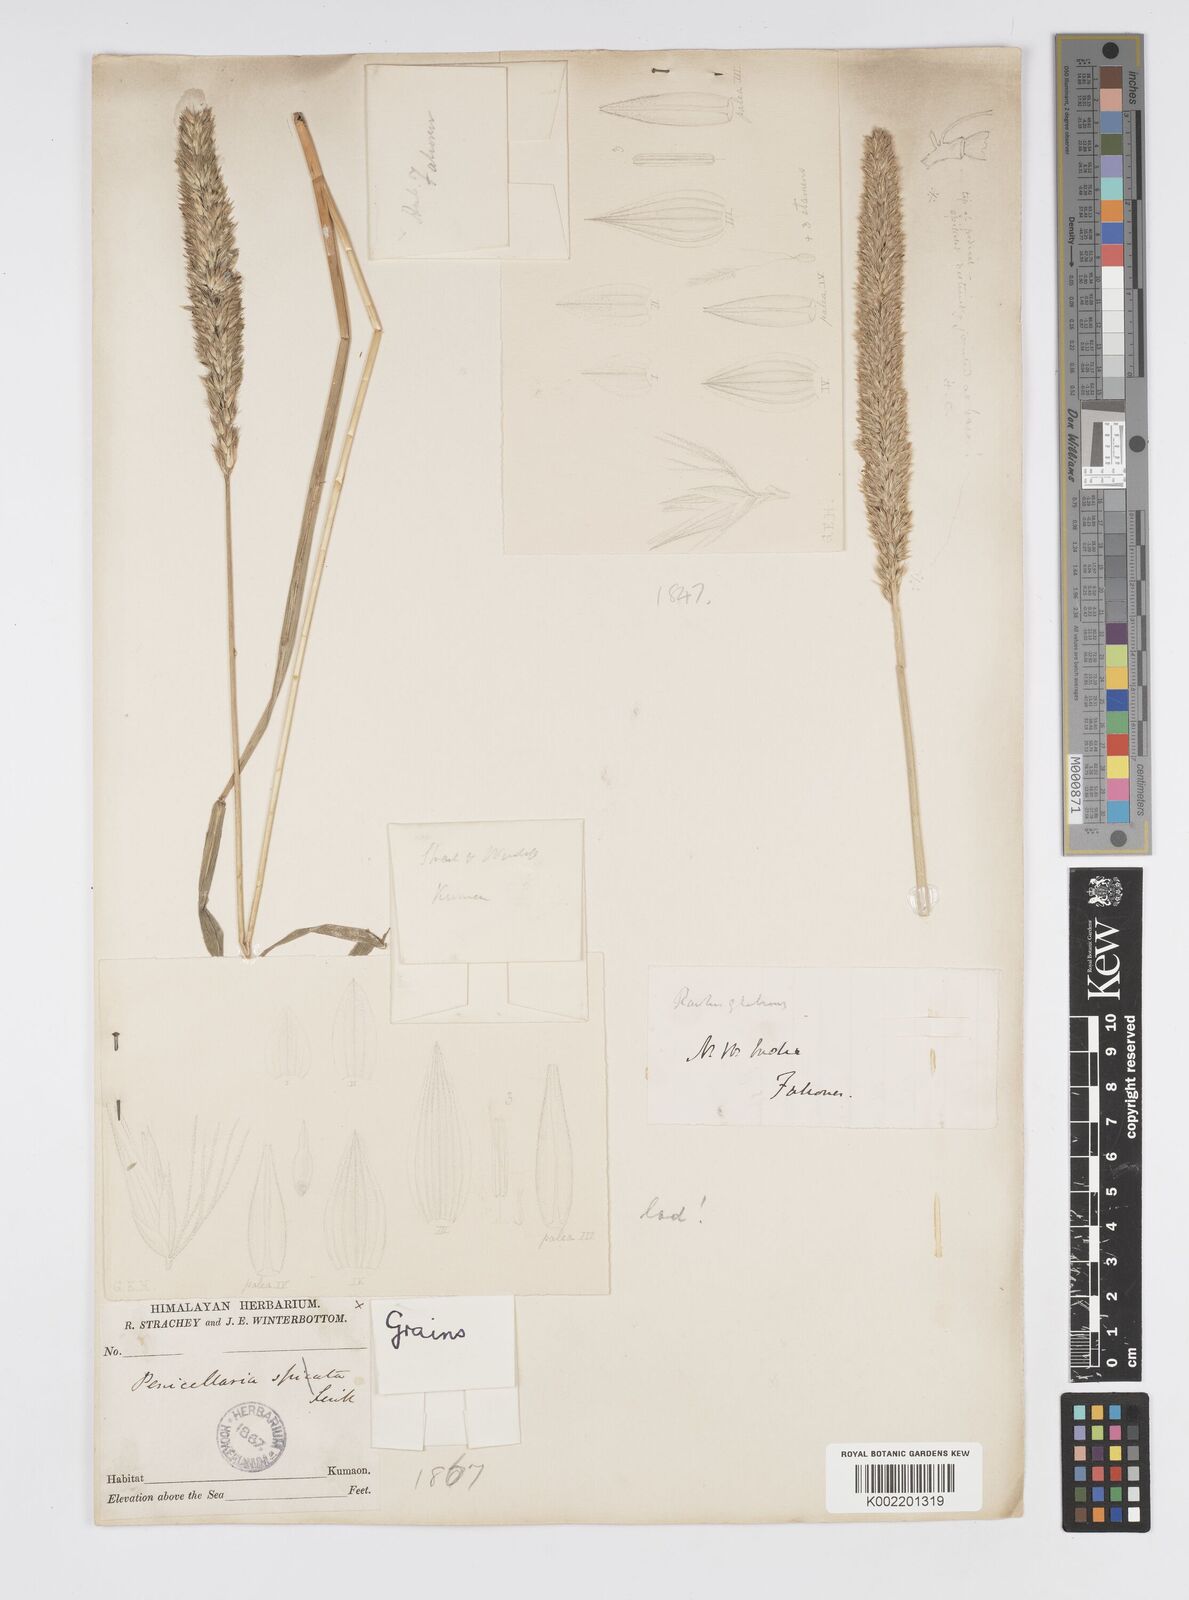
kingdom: Plantae
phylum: Tracheophyta
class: Liliopsida
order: Poales
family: Poaceae
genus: Cenchrus
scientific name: Cenchrus lanatus
